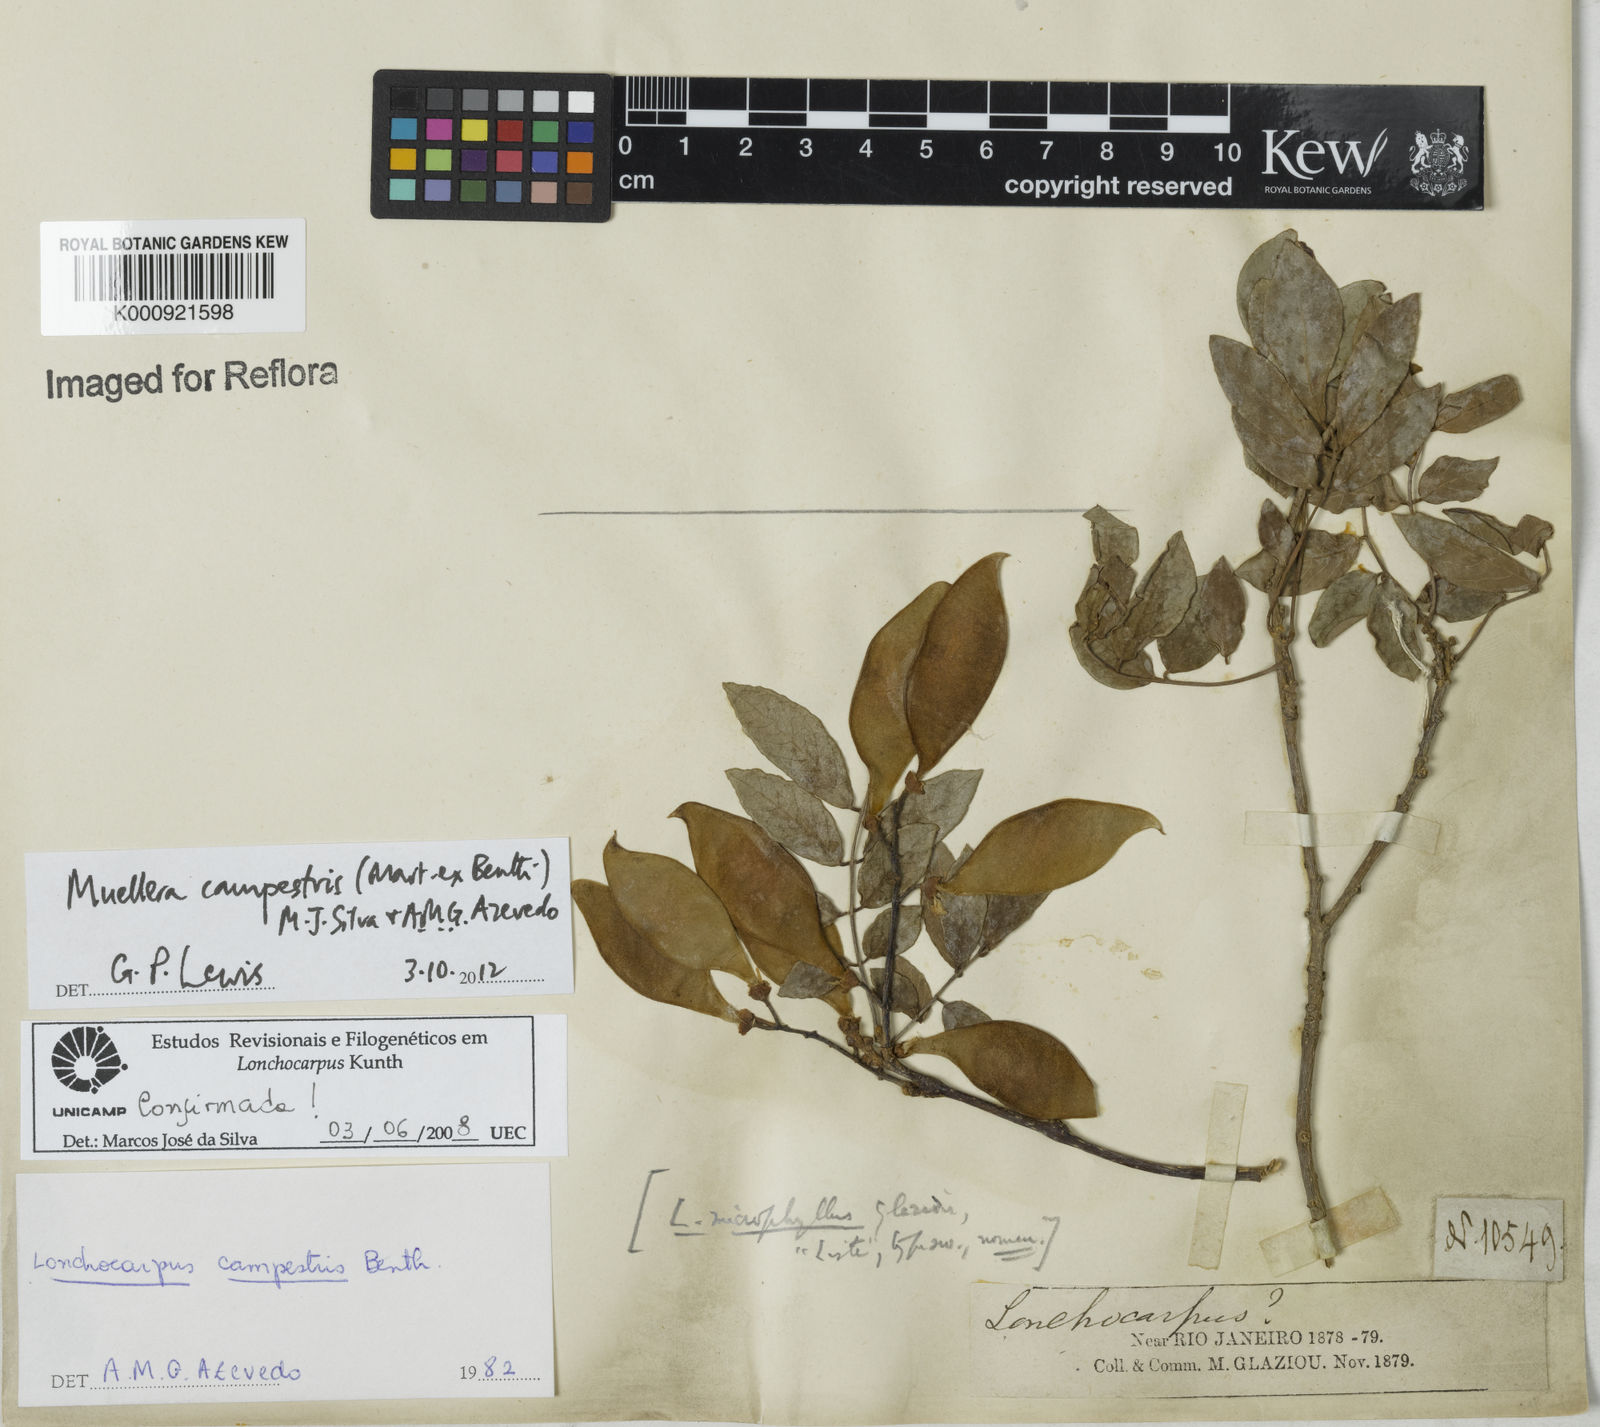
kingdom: Plantae
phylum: Tracheophyta
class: Magnoliopsida
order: Fabales
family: Fabaceae
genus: Muellera
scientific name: Muellera campestris
